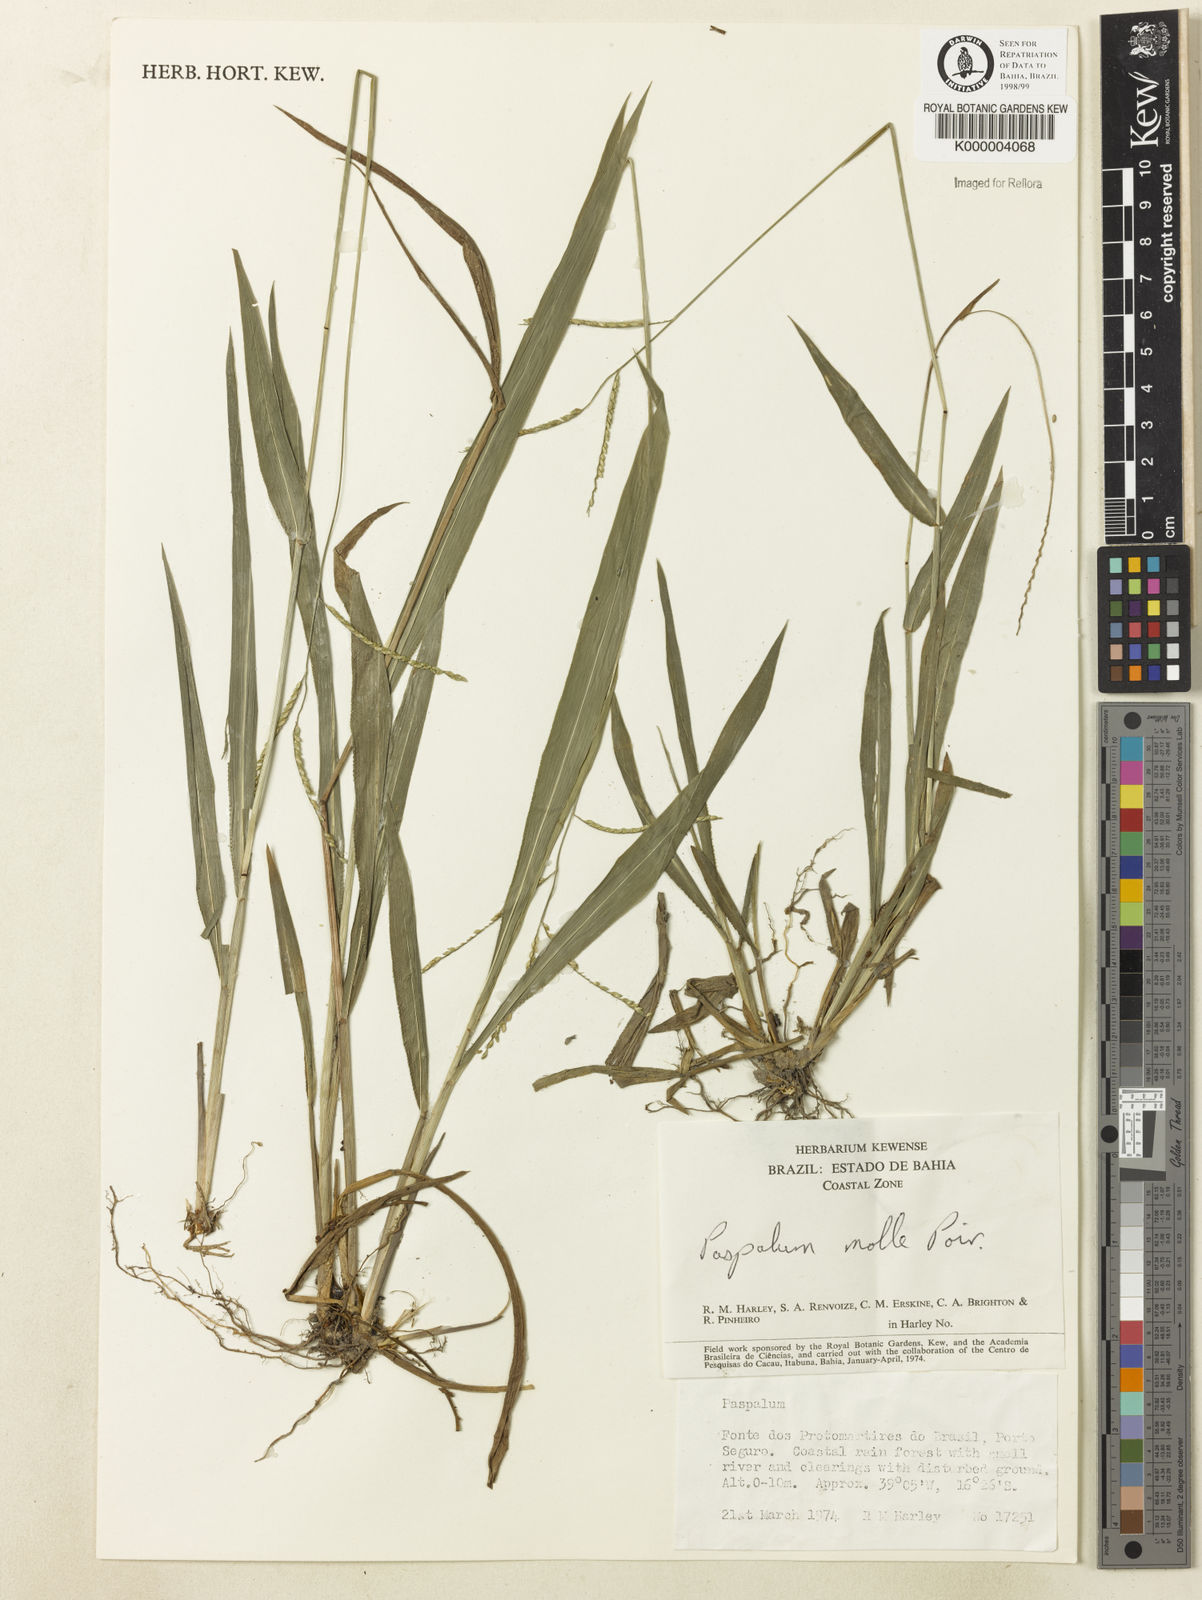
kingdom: Plantae
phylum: Tracheophyta
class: Liliopsida
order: Poales
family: Poaceae
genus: Paspalum
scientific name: Paspalum molle
